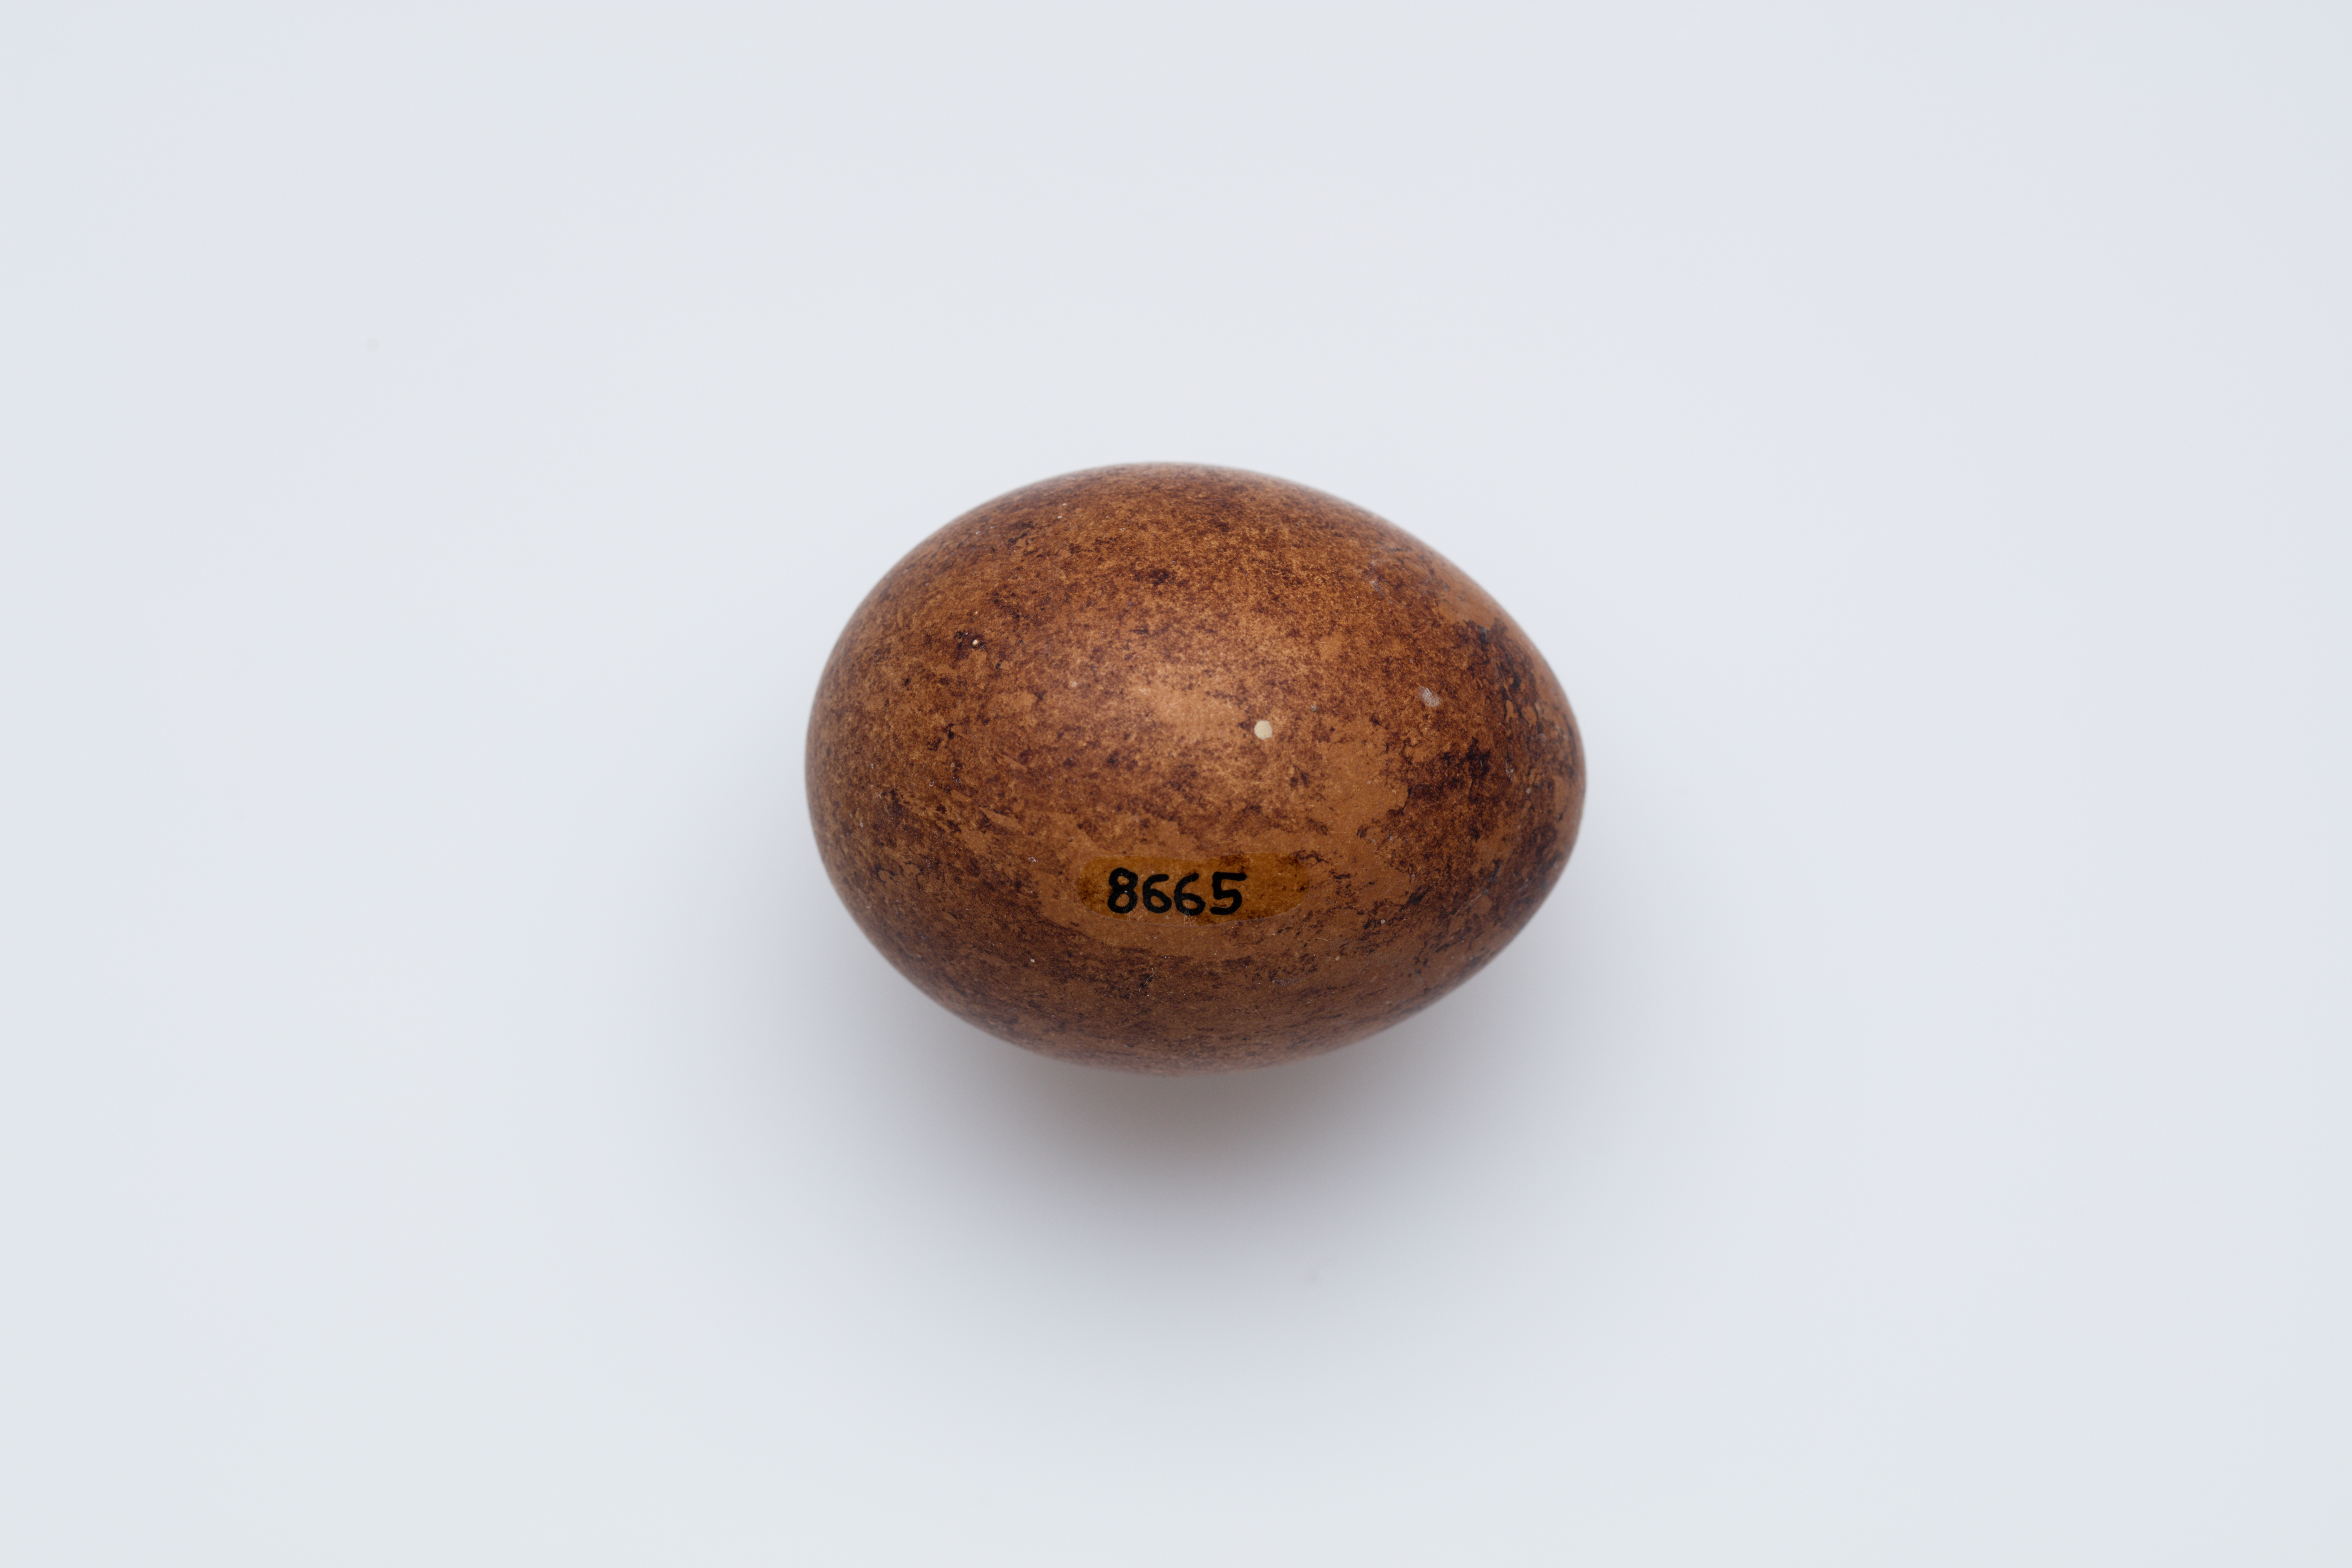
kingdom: Animalia
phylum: Chordata
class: Aves
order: Falconiformes
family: Falconidae
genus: Falco
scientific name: Falco novaeseelandiae
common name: New zealand falcon
